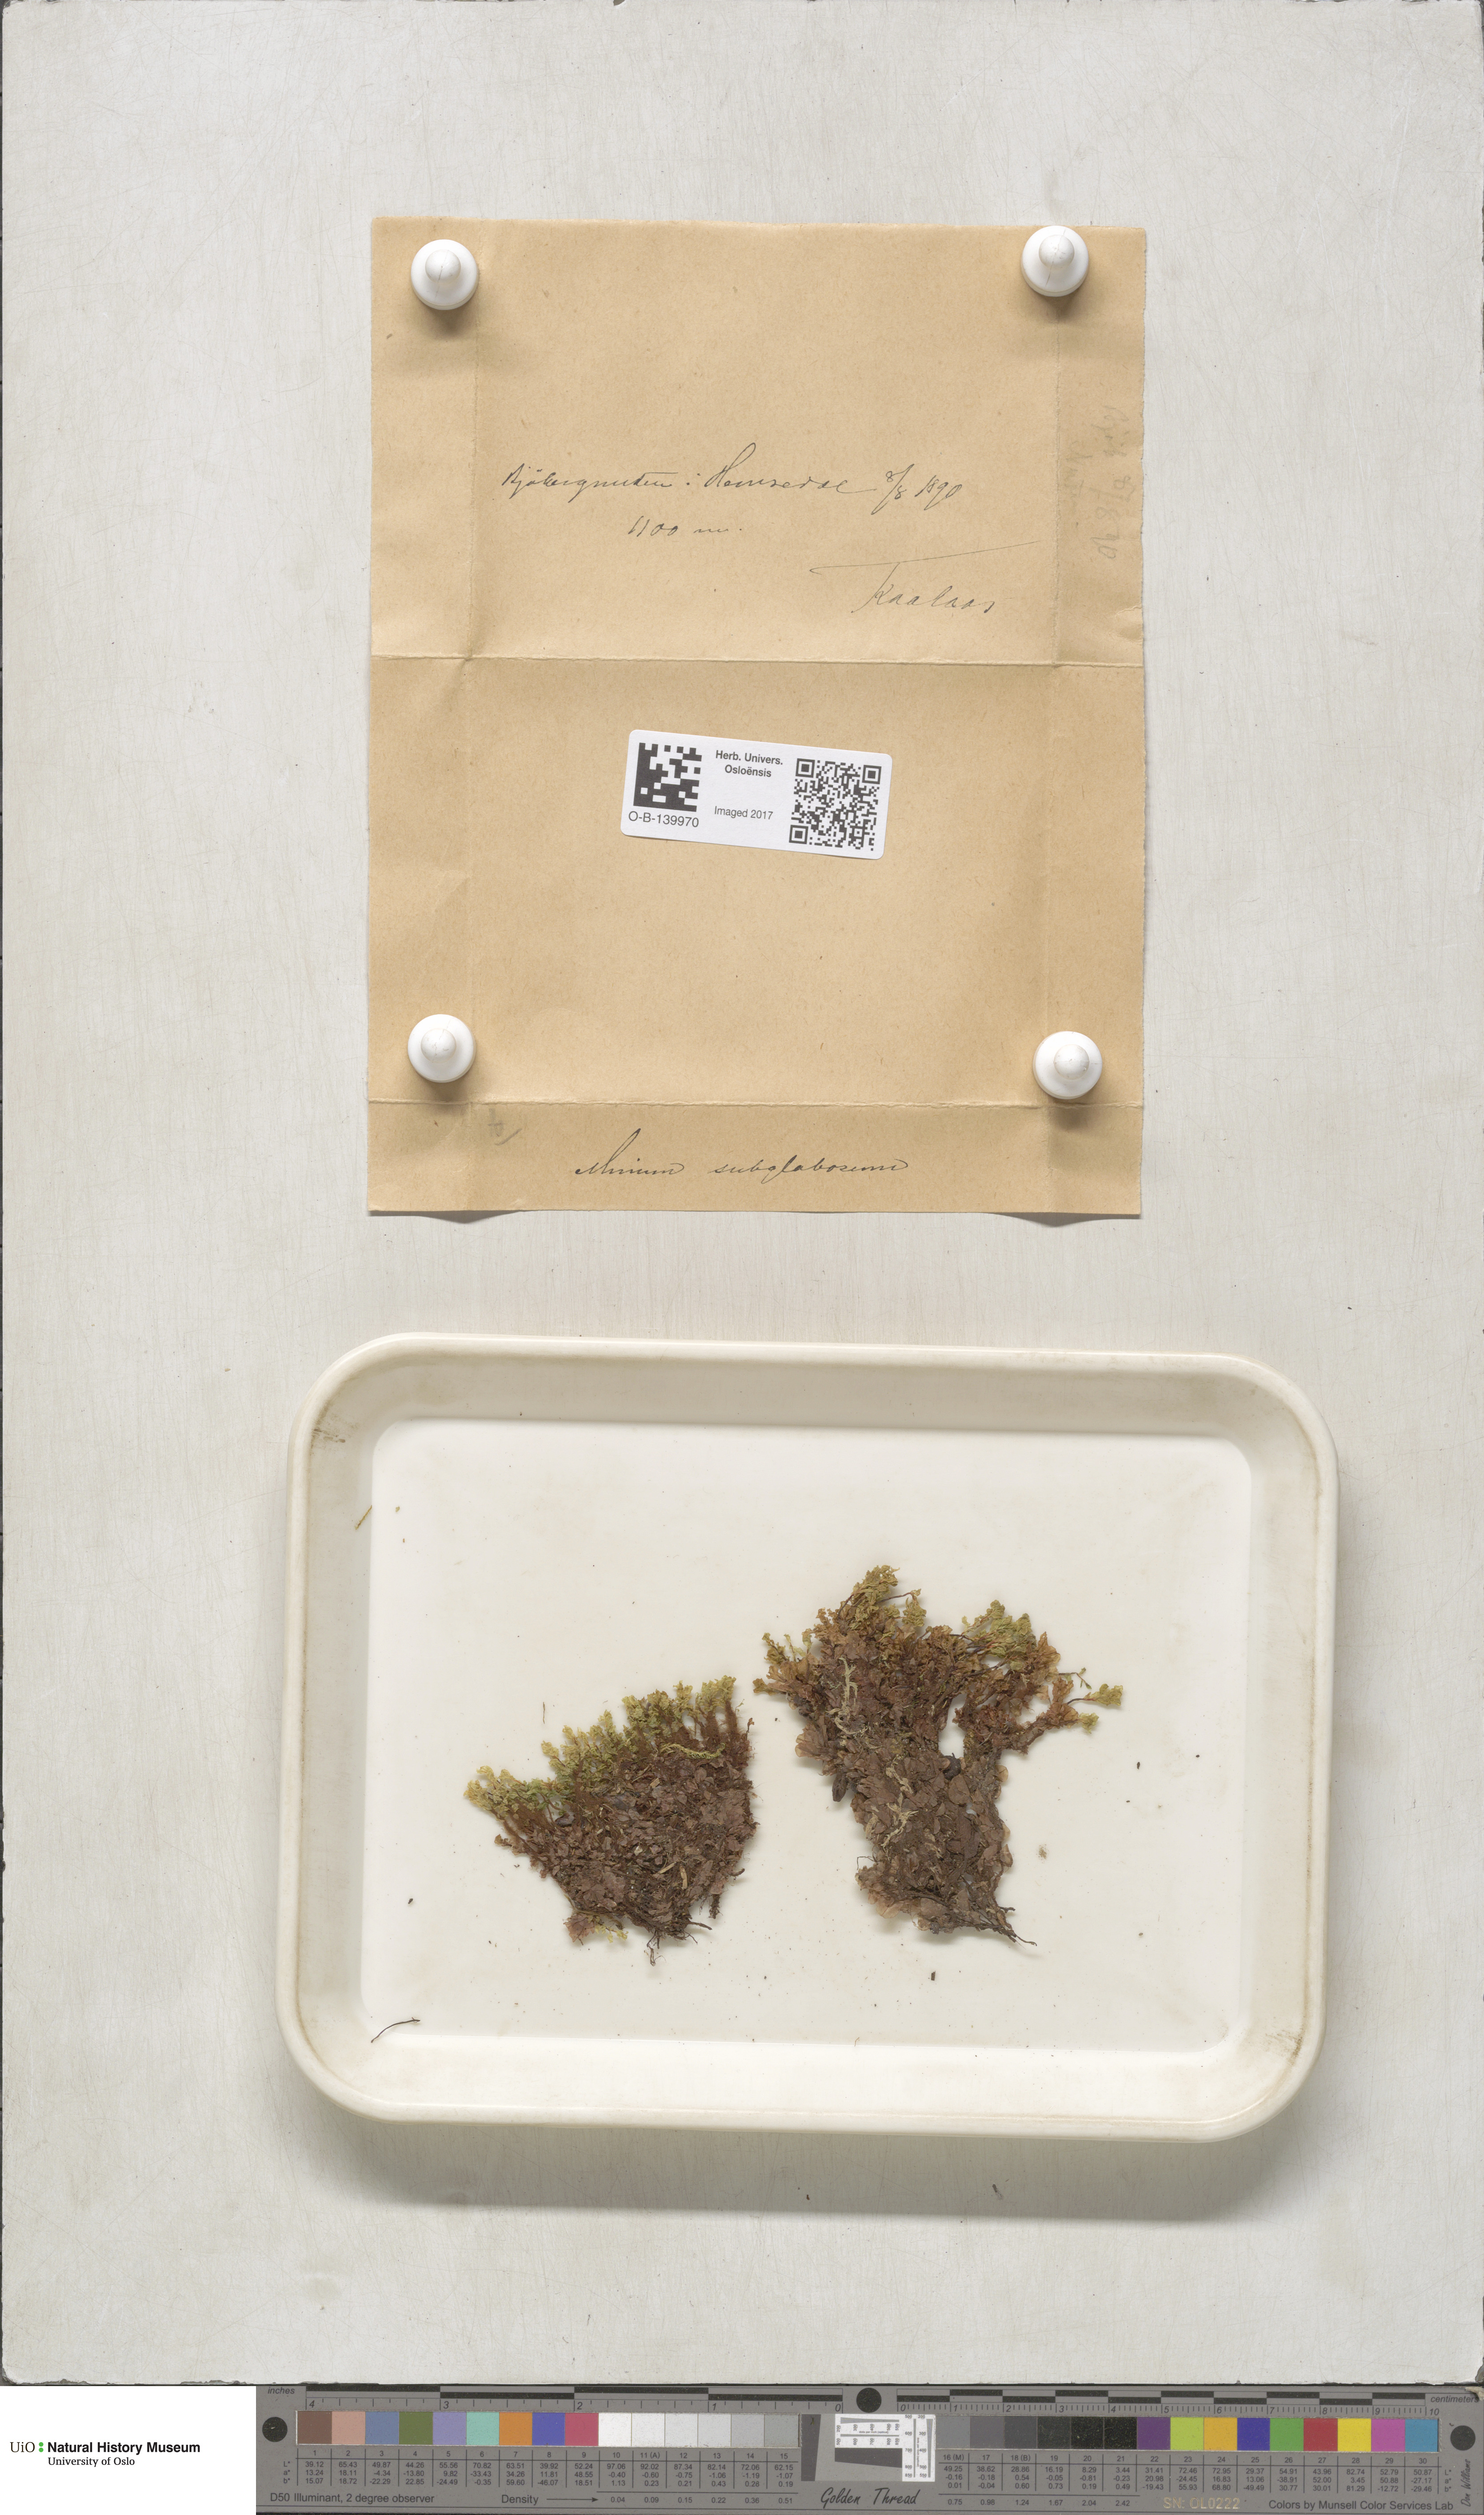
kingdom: Plantae
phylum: Bryophyta
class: Bryopsida
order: Bryales
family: Mniaceae
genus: Rhizomnium
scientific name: Rhizomnium pseudopunctatum
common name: Felted leafy moss
